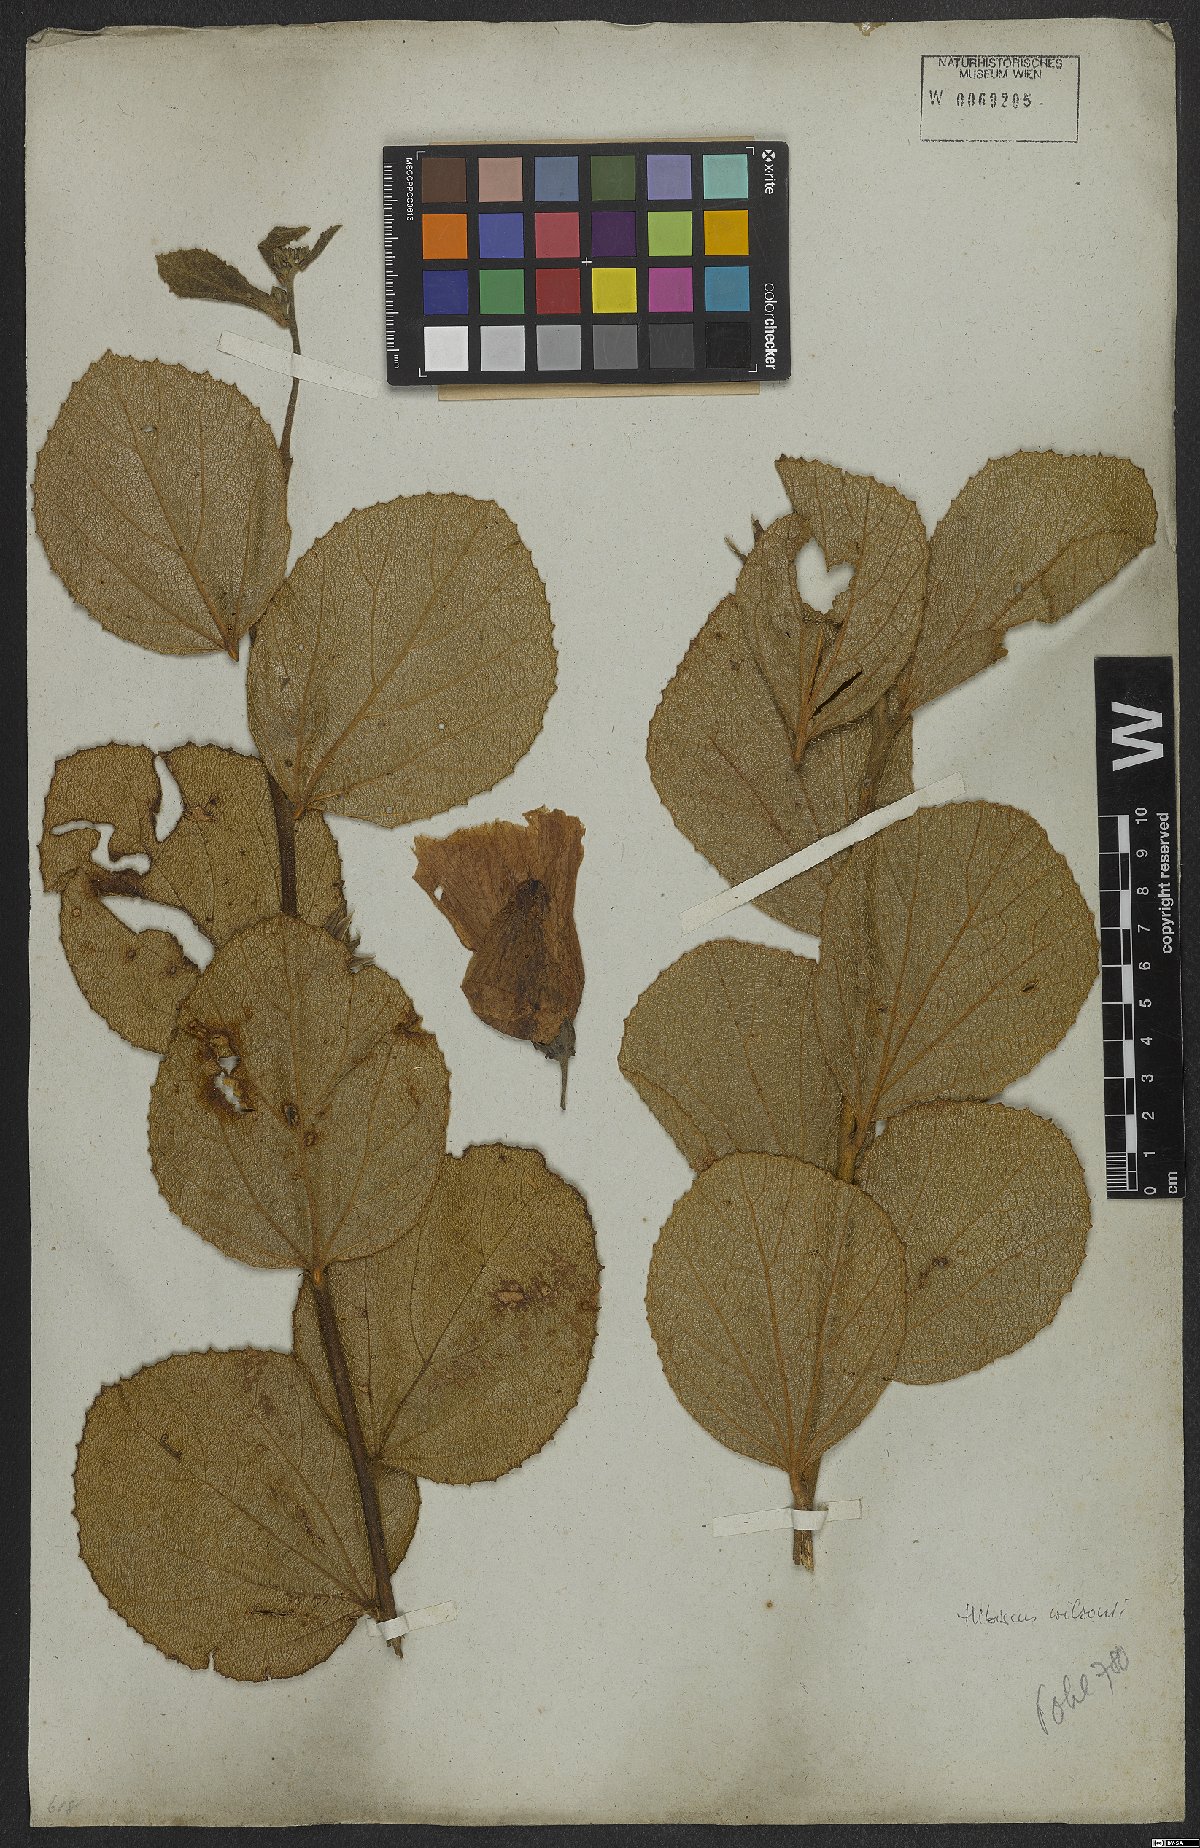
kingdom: Plantae
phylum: Tracheophyta
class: Magnoliopsida
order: Malvales
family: Malvaceae
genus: Hibiscus
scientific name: Hibiscus wilsonii
